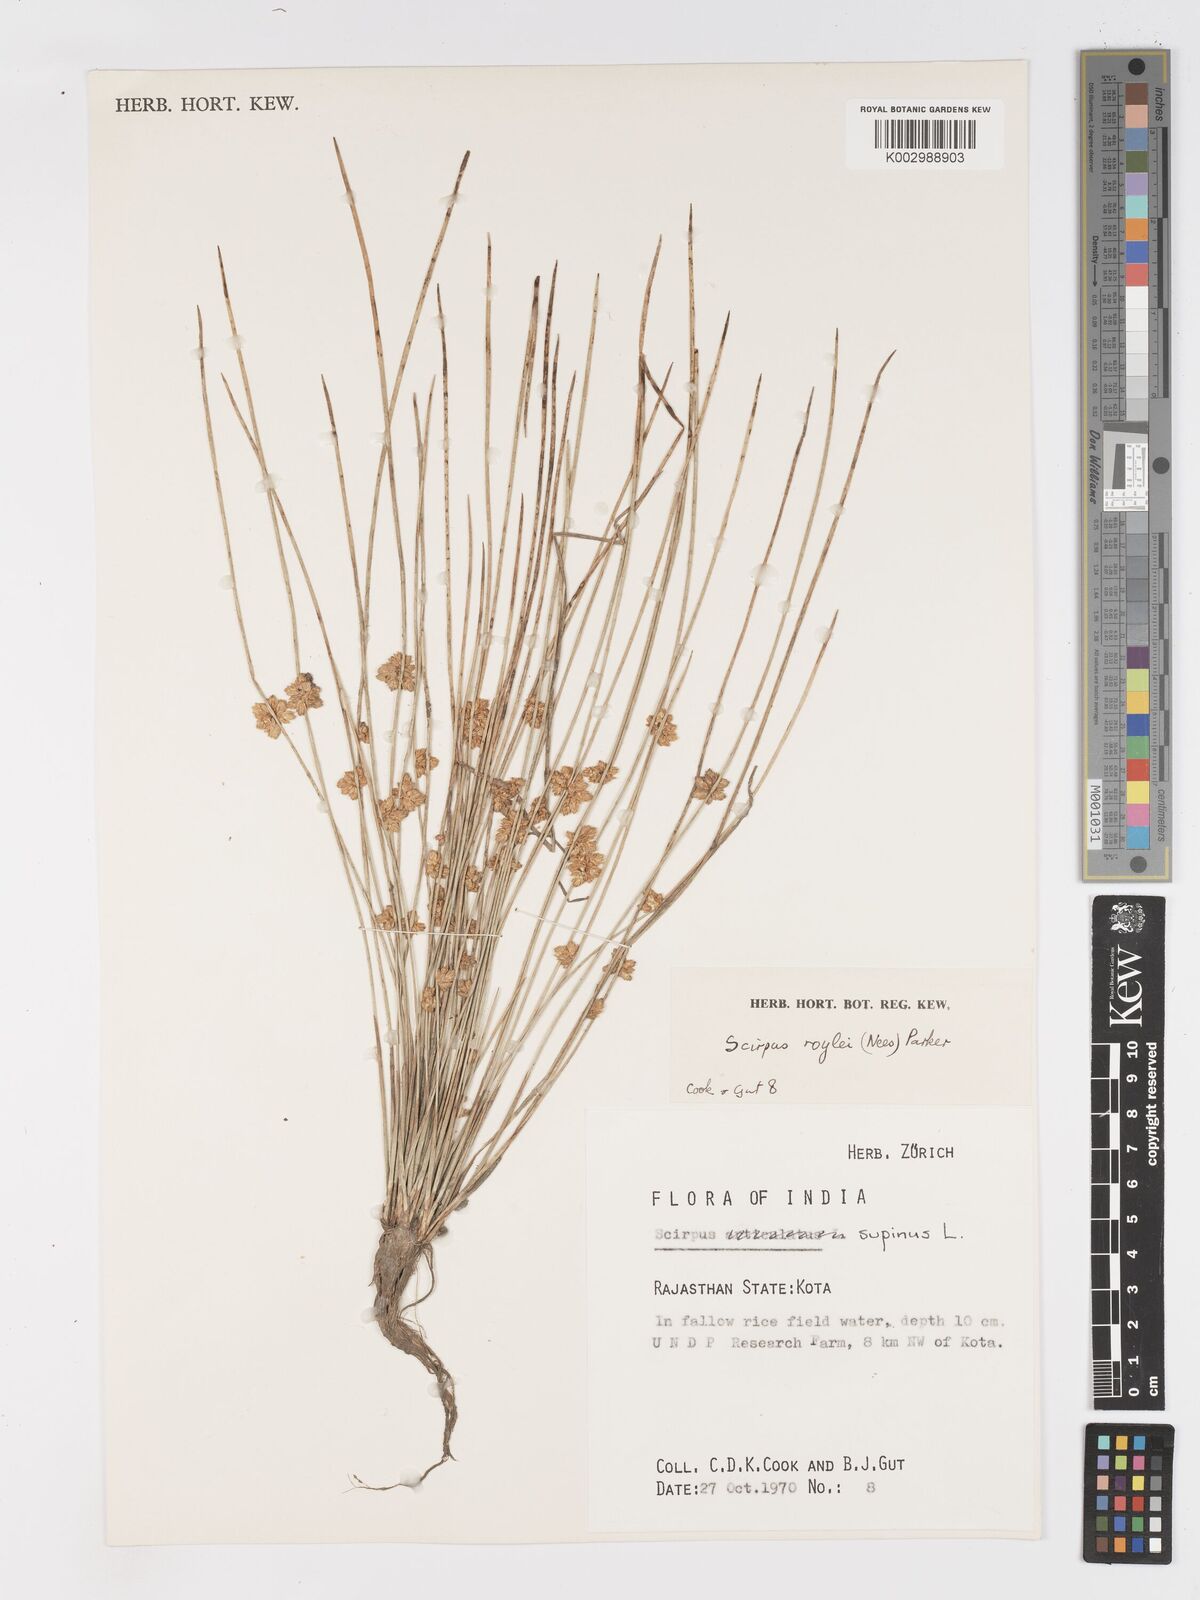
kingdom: Plantae
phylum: Tracheophyta
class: Liliopsida
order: Poales
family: Cyperaceae
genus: Schoenoplectiella
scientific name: Schoenoplectiella roylei
